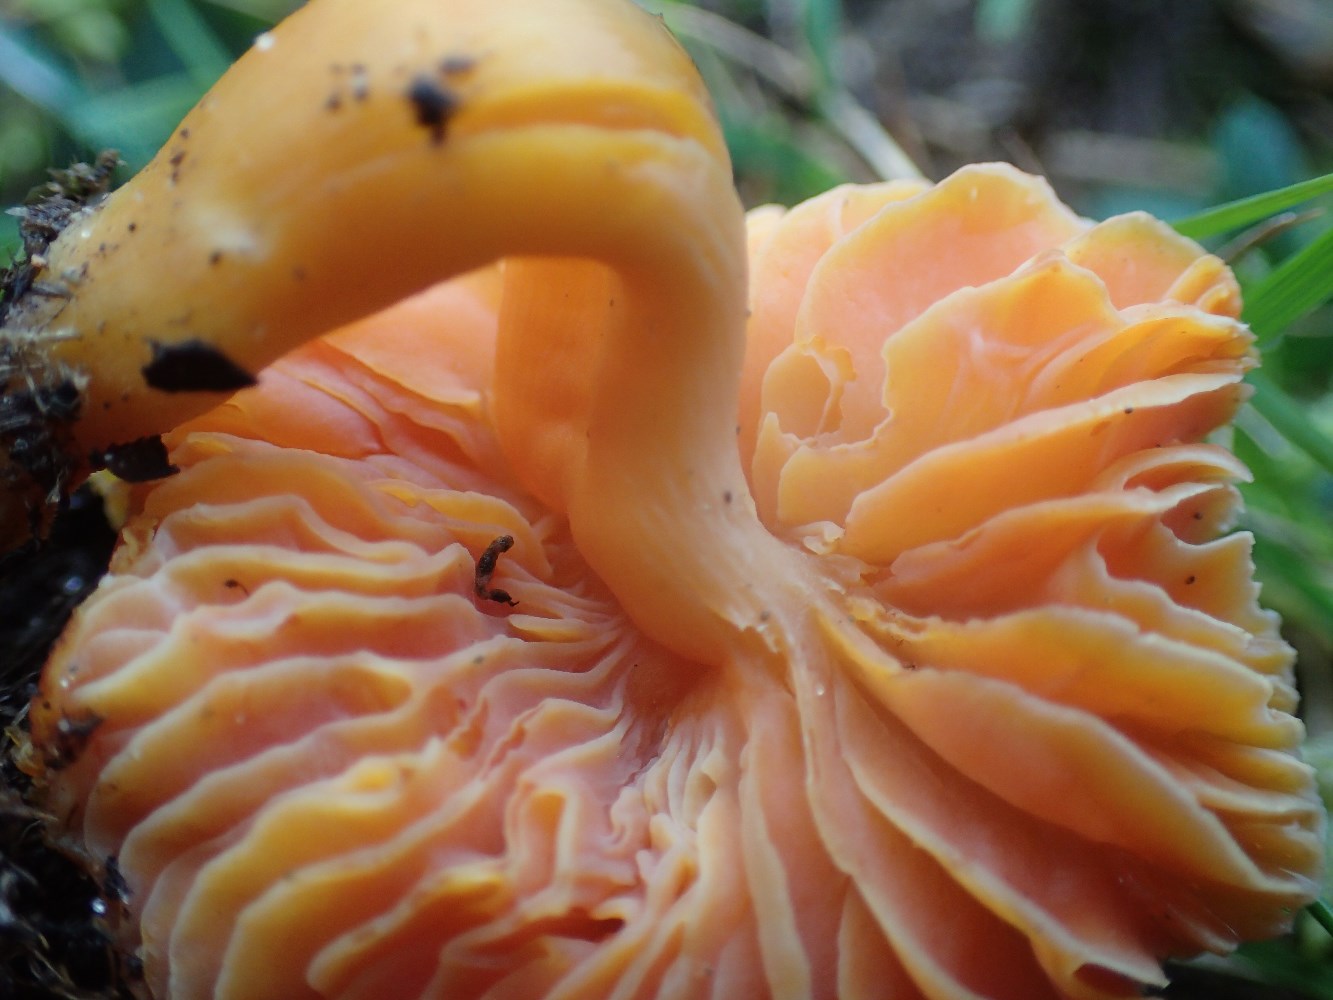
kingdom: Fungi
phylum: Basidiomycota
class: Agaricomycetes
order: Agaricales
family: Hygrophoraceae
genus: Hygrocybe
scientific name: Hygrocybe quieta
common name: tæge-vokshat
